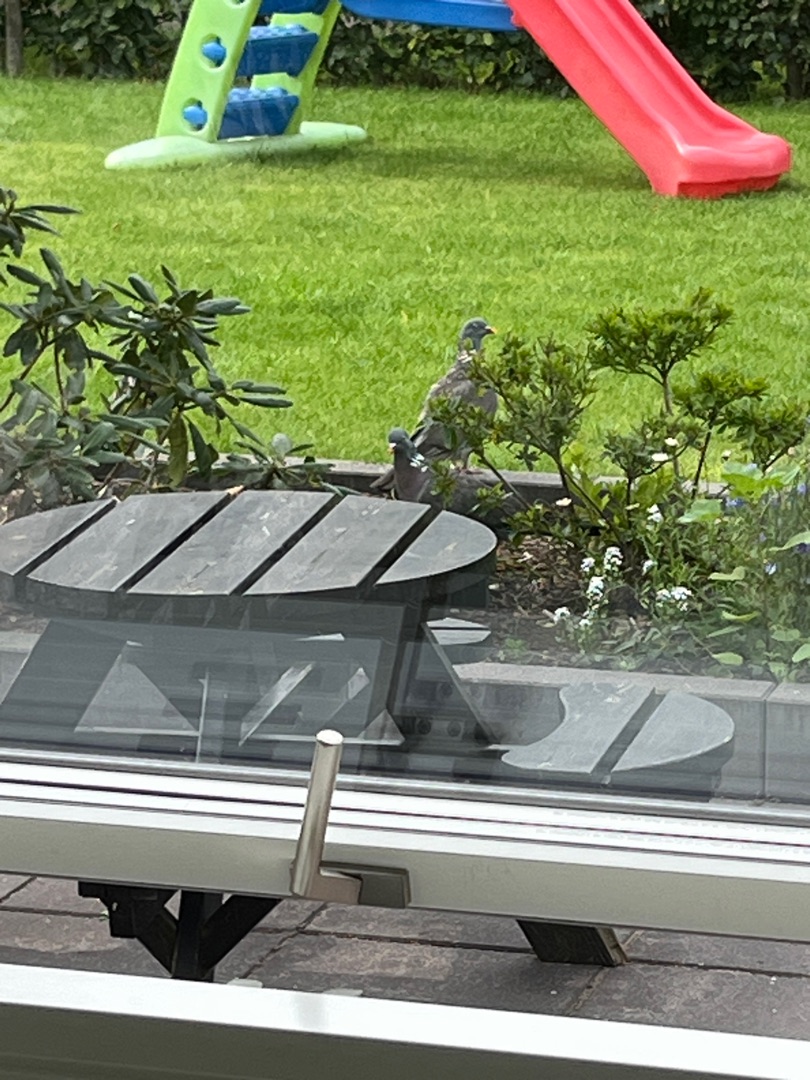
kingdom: Animalia
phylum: Chordata
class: Aves
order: Columbiformes
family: Columbidae
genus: Columba
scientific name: Columba palumbus
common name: Ringdue
